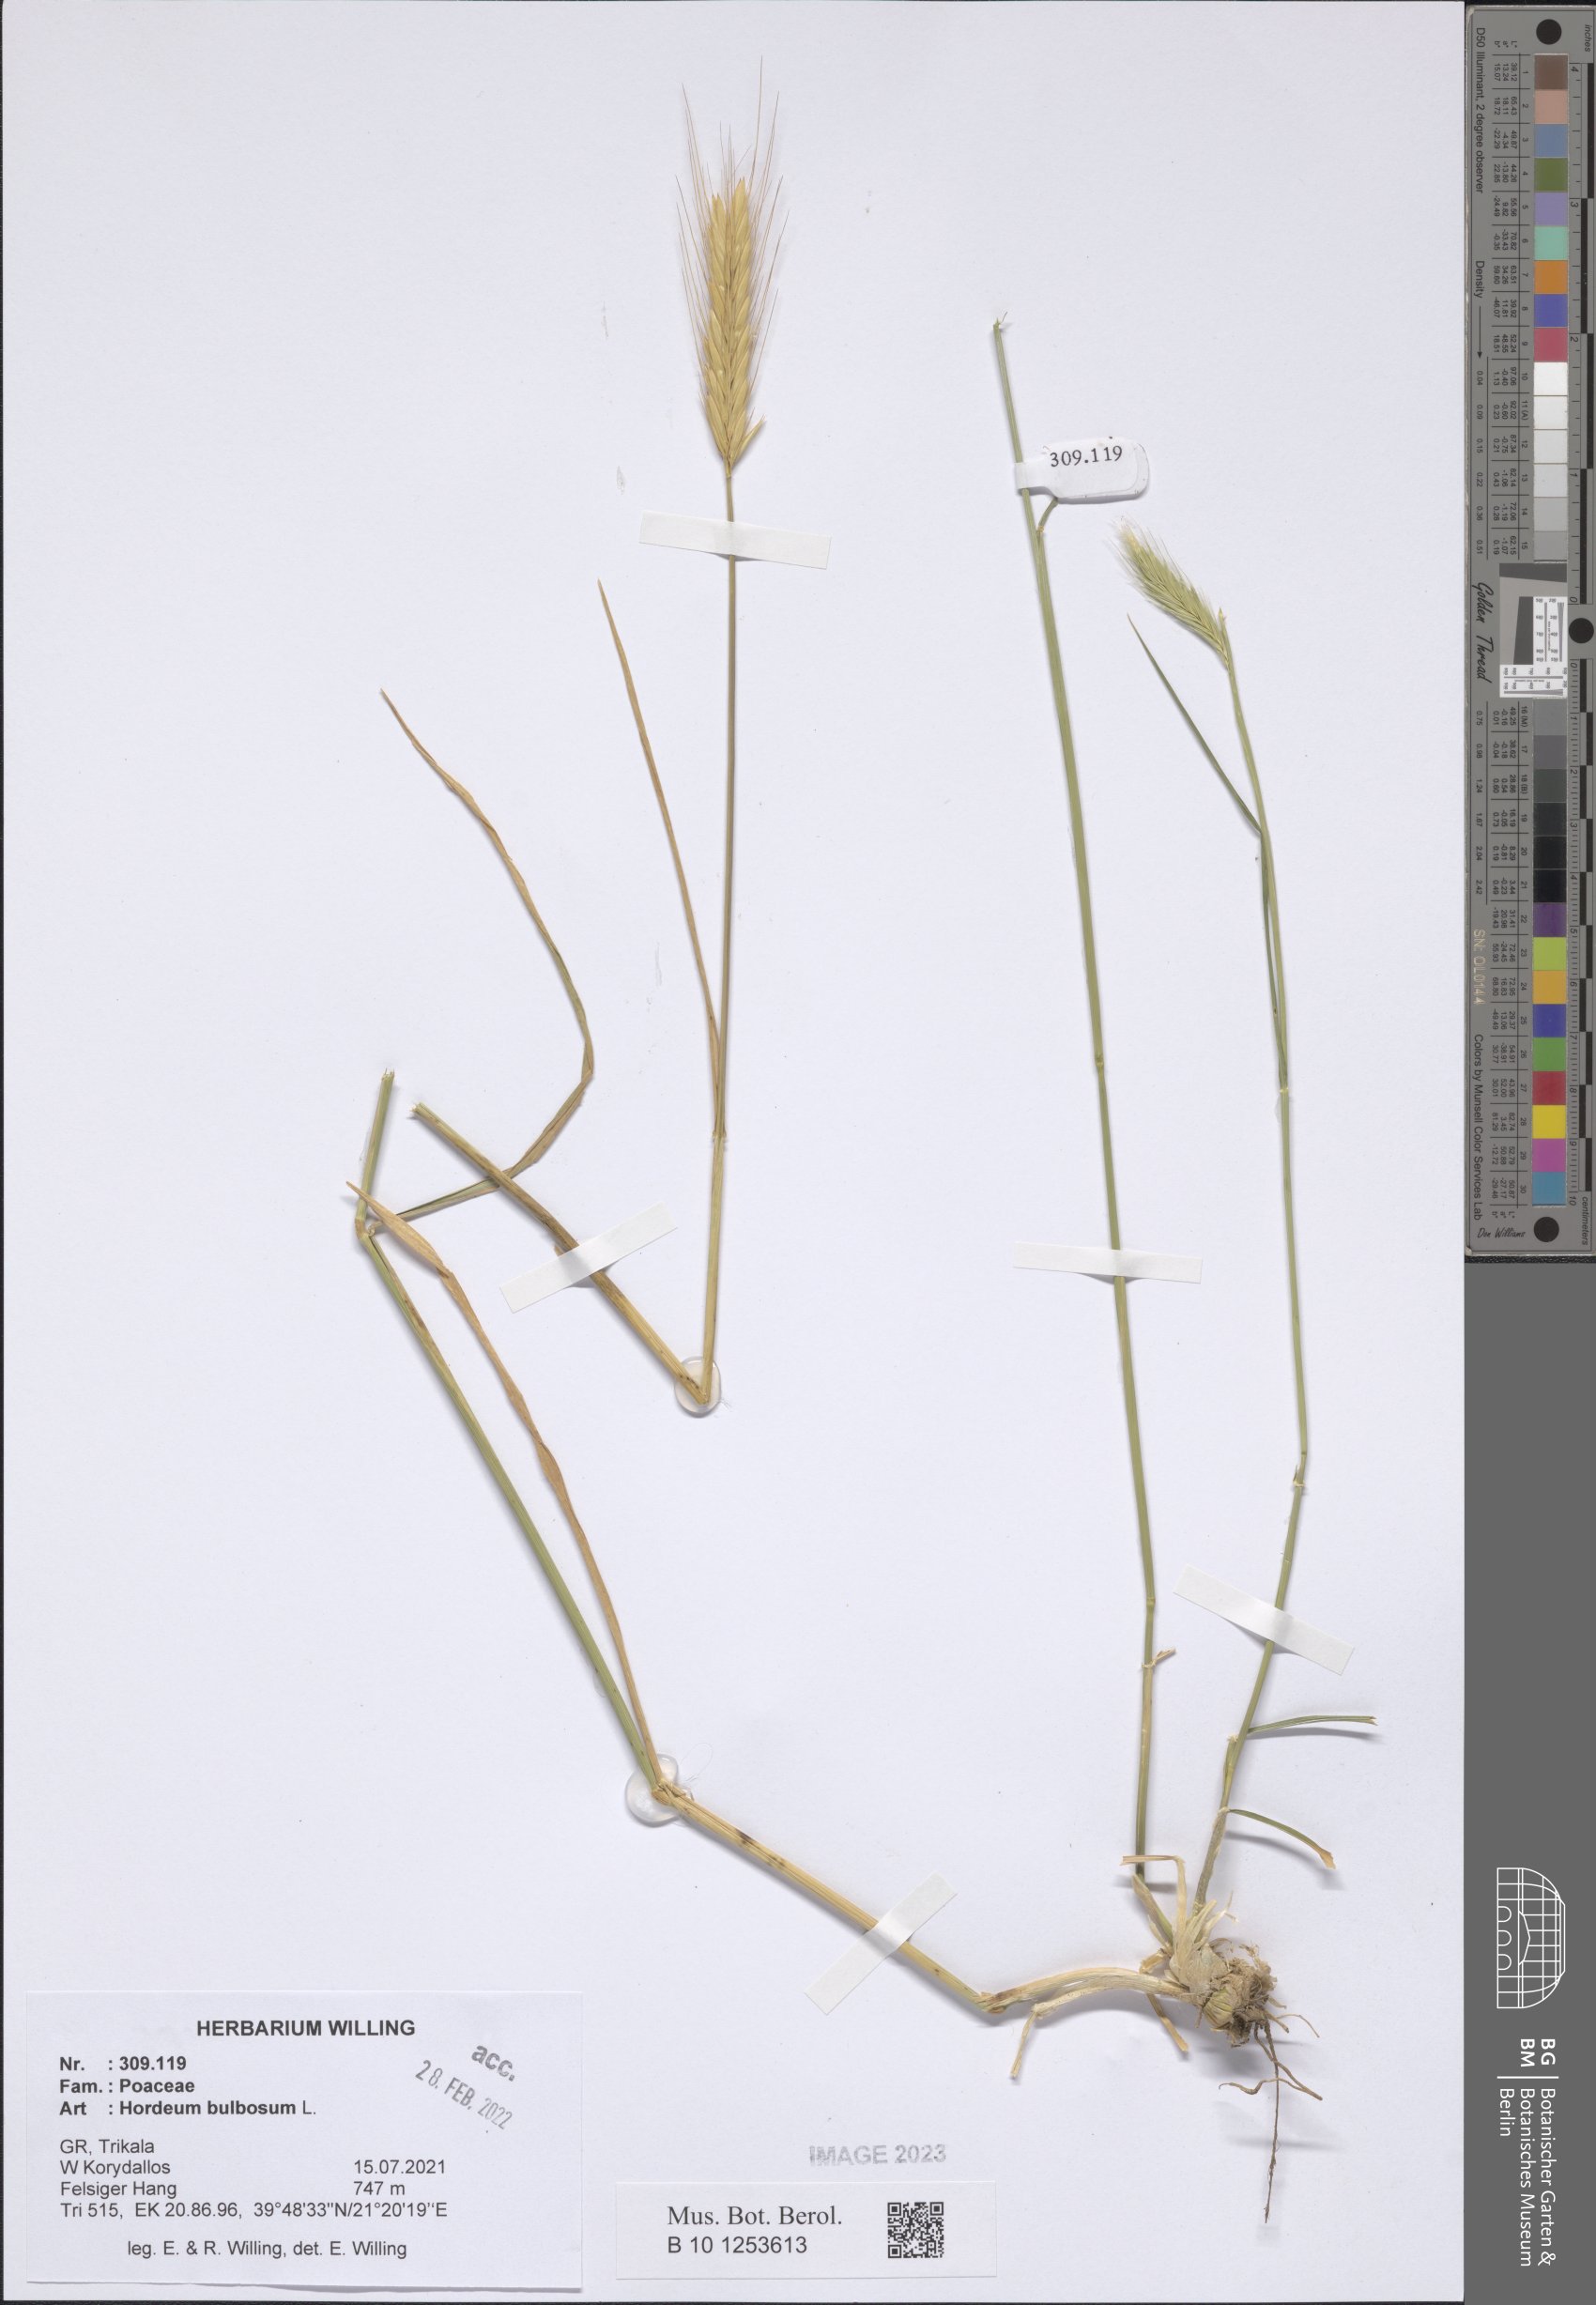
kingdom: Plantae
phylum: Tracheophyta
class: Liliopsida
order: Poales
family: Poaceae
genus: Hordeum
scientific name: Hordeum bulbosum
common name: Bulbous barley
